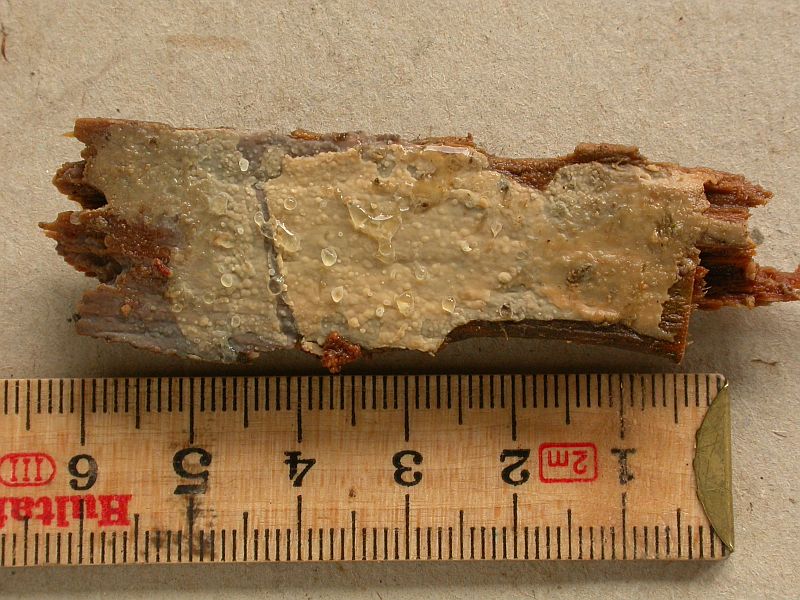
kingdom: Fungi
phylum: Basidiomycota
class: Agaricomycetes
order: Corticiales
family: Corticiaceae
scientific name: Corticiaceae
